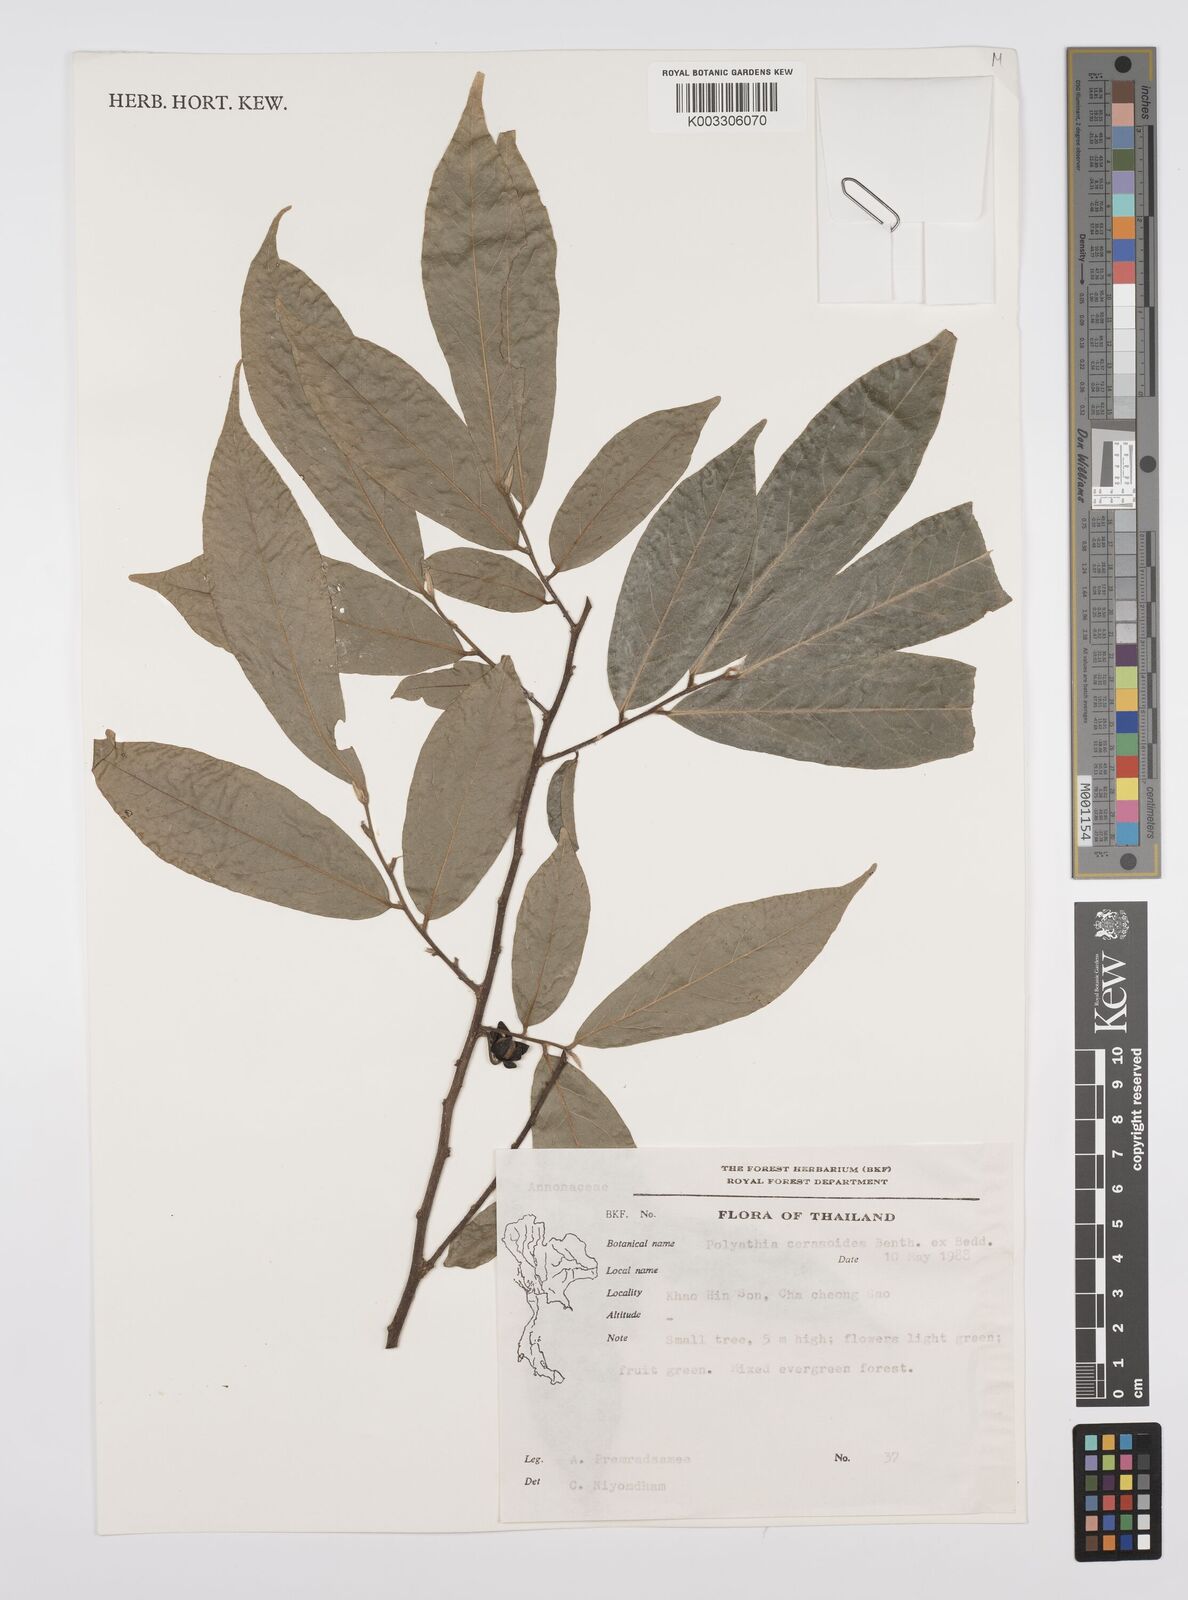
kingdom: Plantae
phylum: Tracheophyta
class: Magnoliopsida
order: Magnoliales
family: Annonaceae
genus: Hubera
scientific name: Hubera cerasoides
